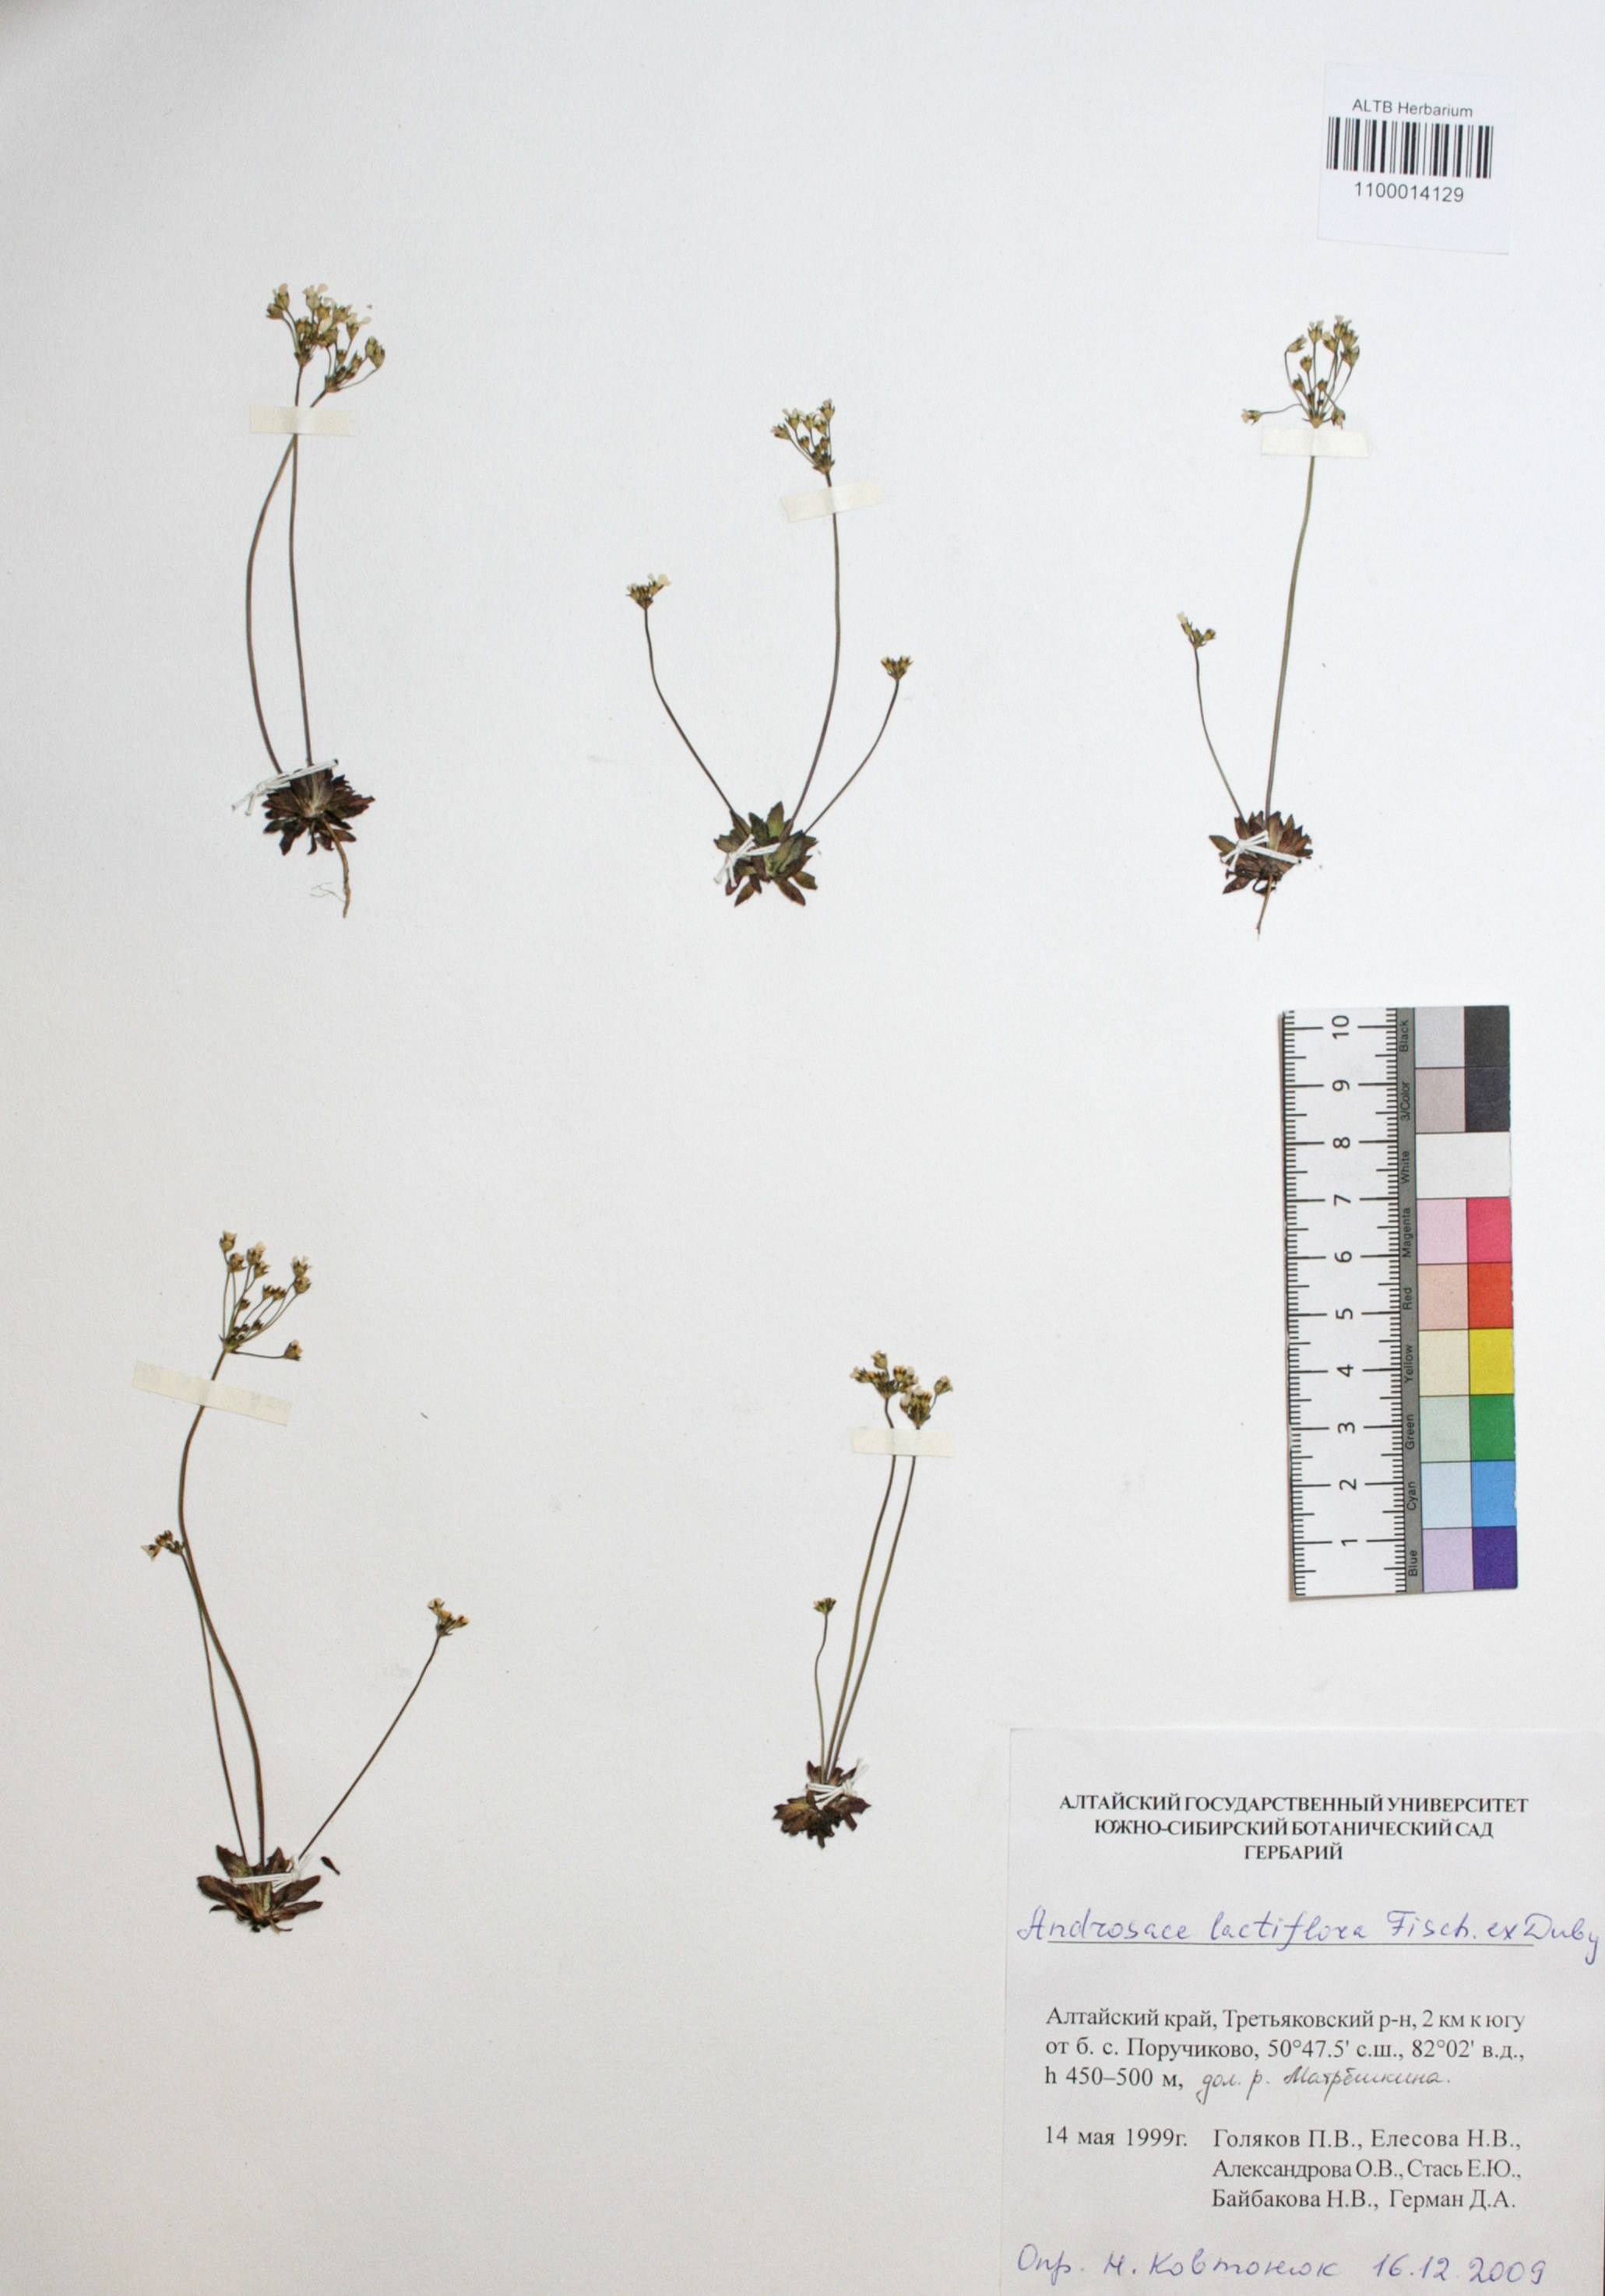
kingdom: Plantae
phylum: Tracheophyta
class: Magnoliopsida
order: Ericales
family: Primulaceae
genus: Androsace
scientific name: Androsace lactiflora
